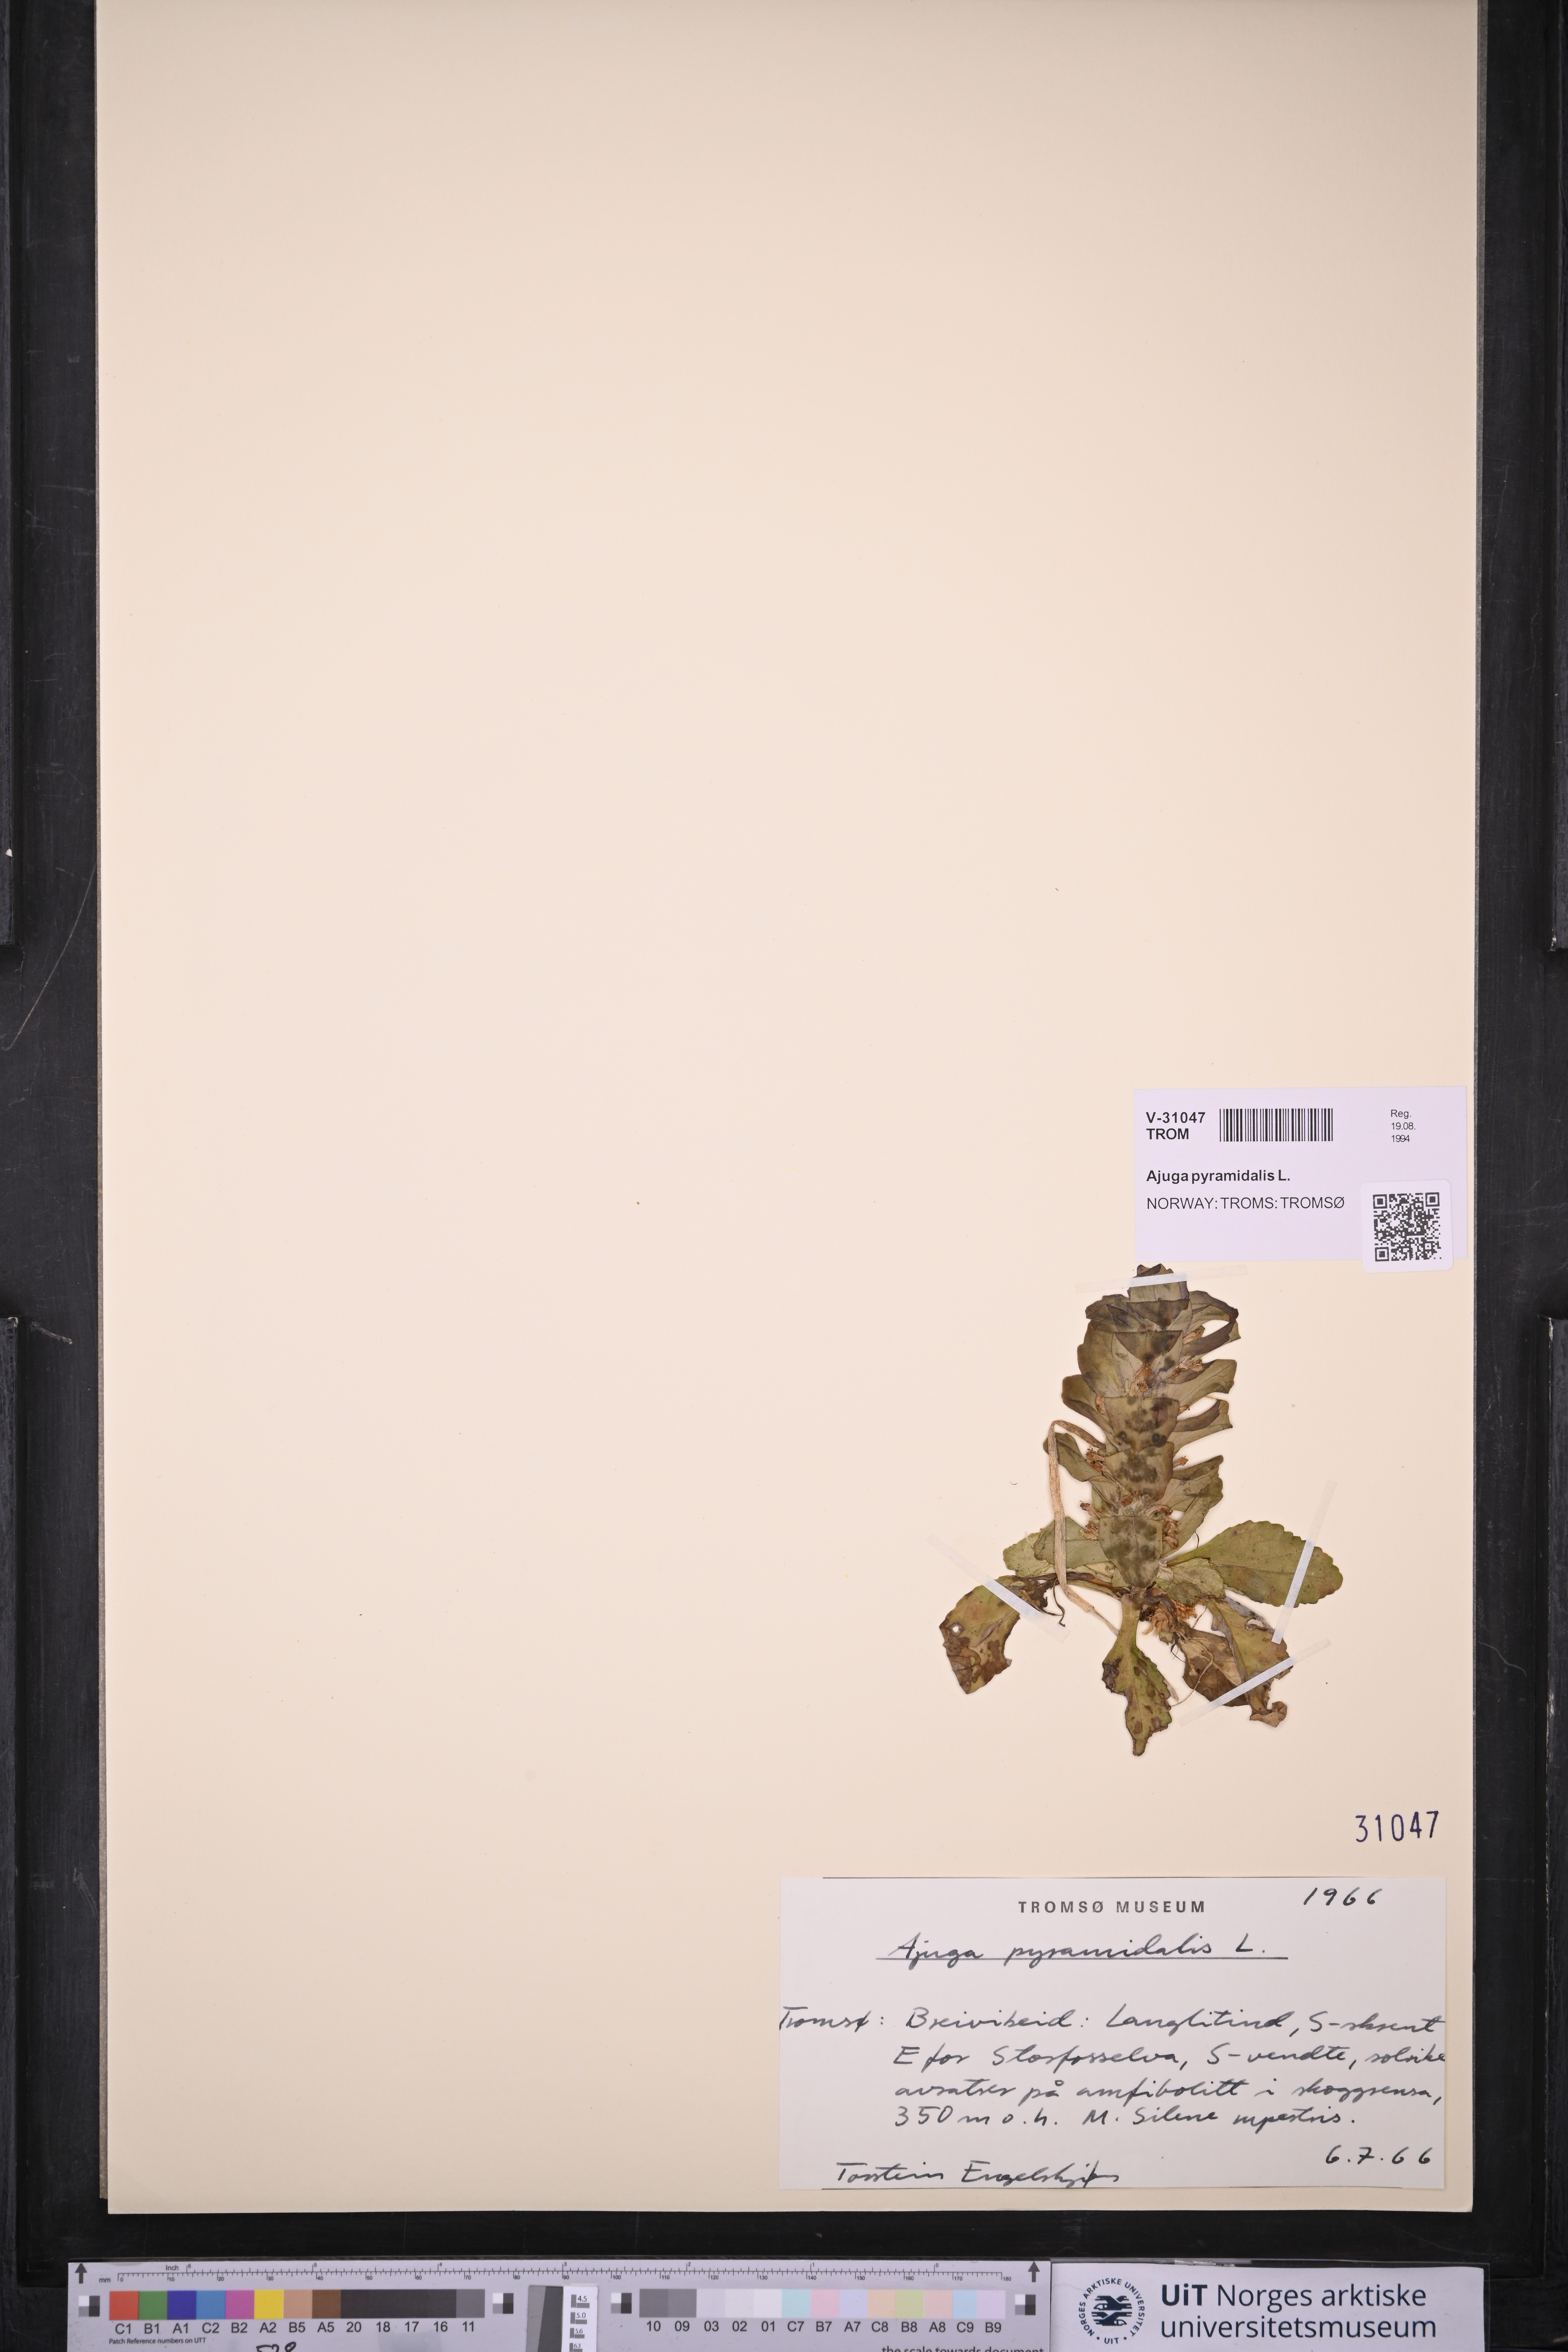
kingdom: Plantae
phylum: Tracheophyta
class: Magnoliopsida
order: Lamiales
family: Lamiaceae
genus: Ajuga
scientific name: Ajuga pyramidalis
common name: Pyramid bugle
